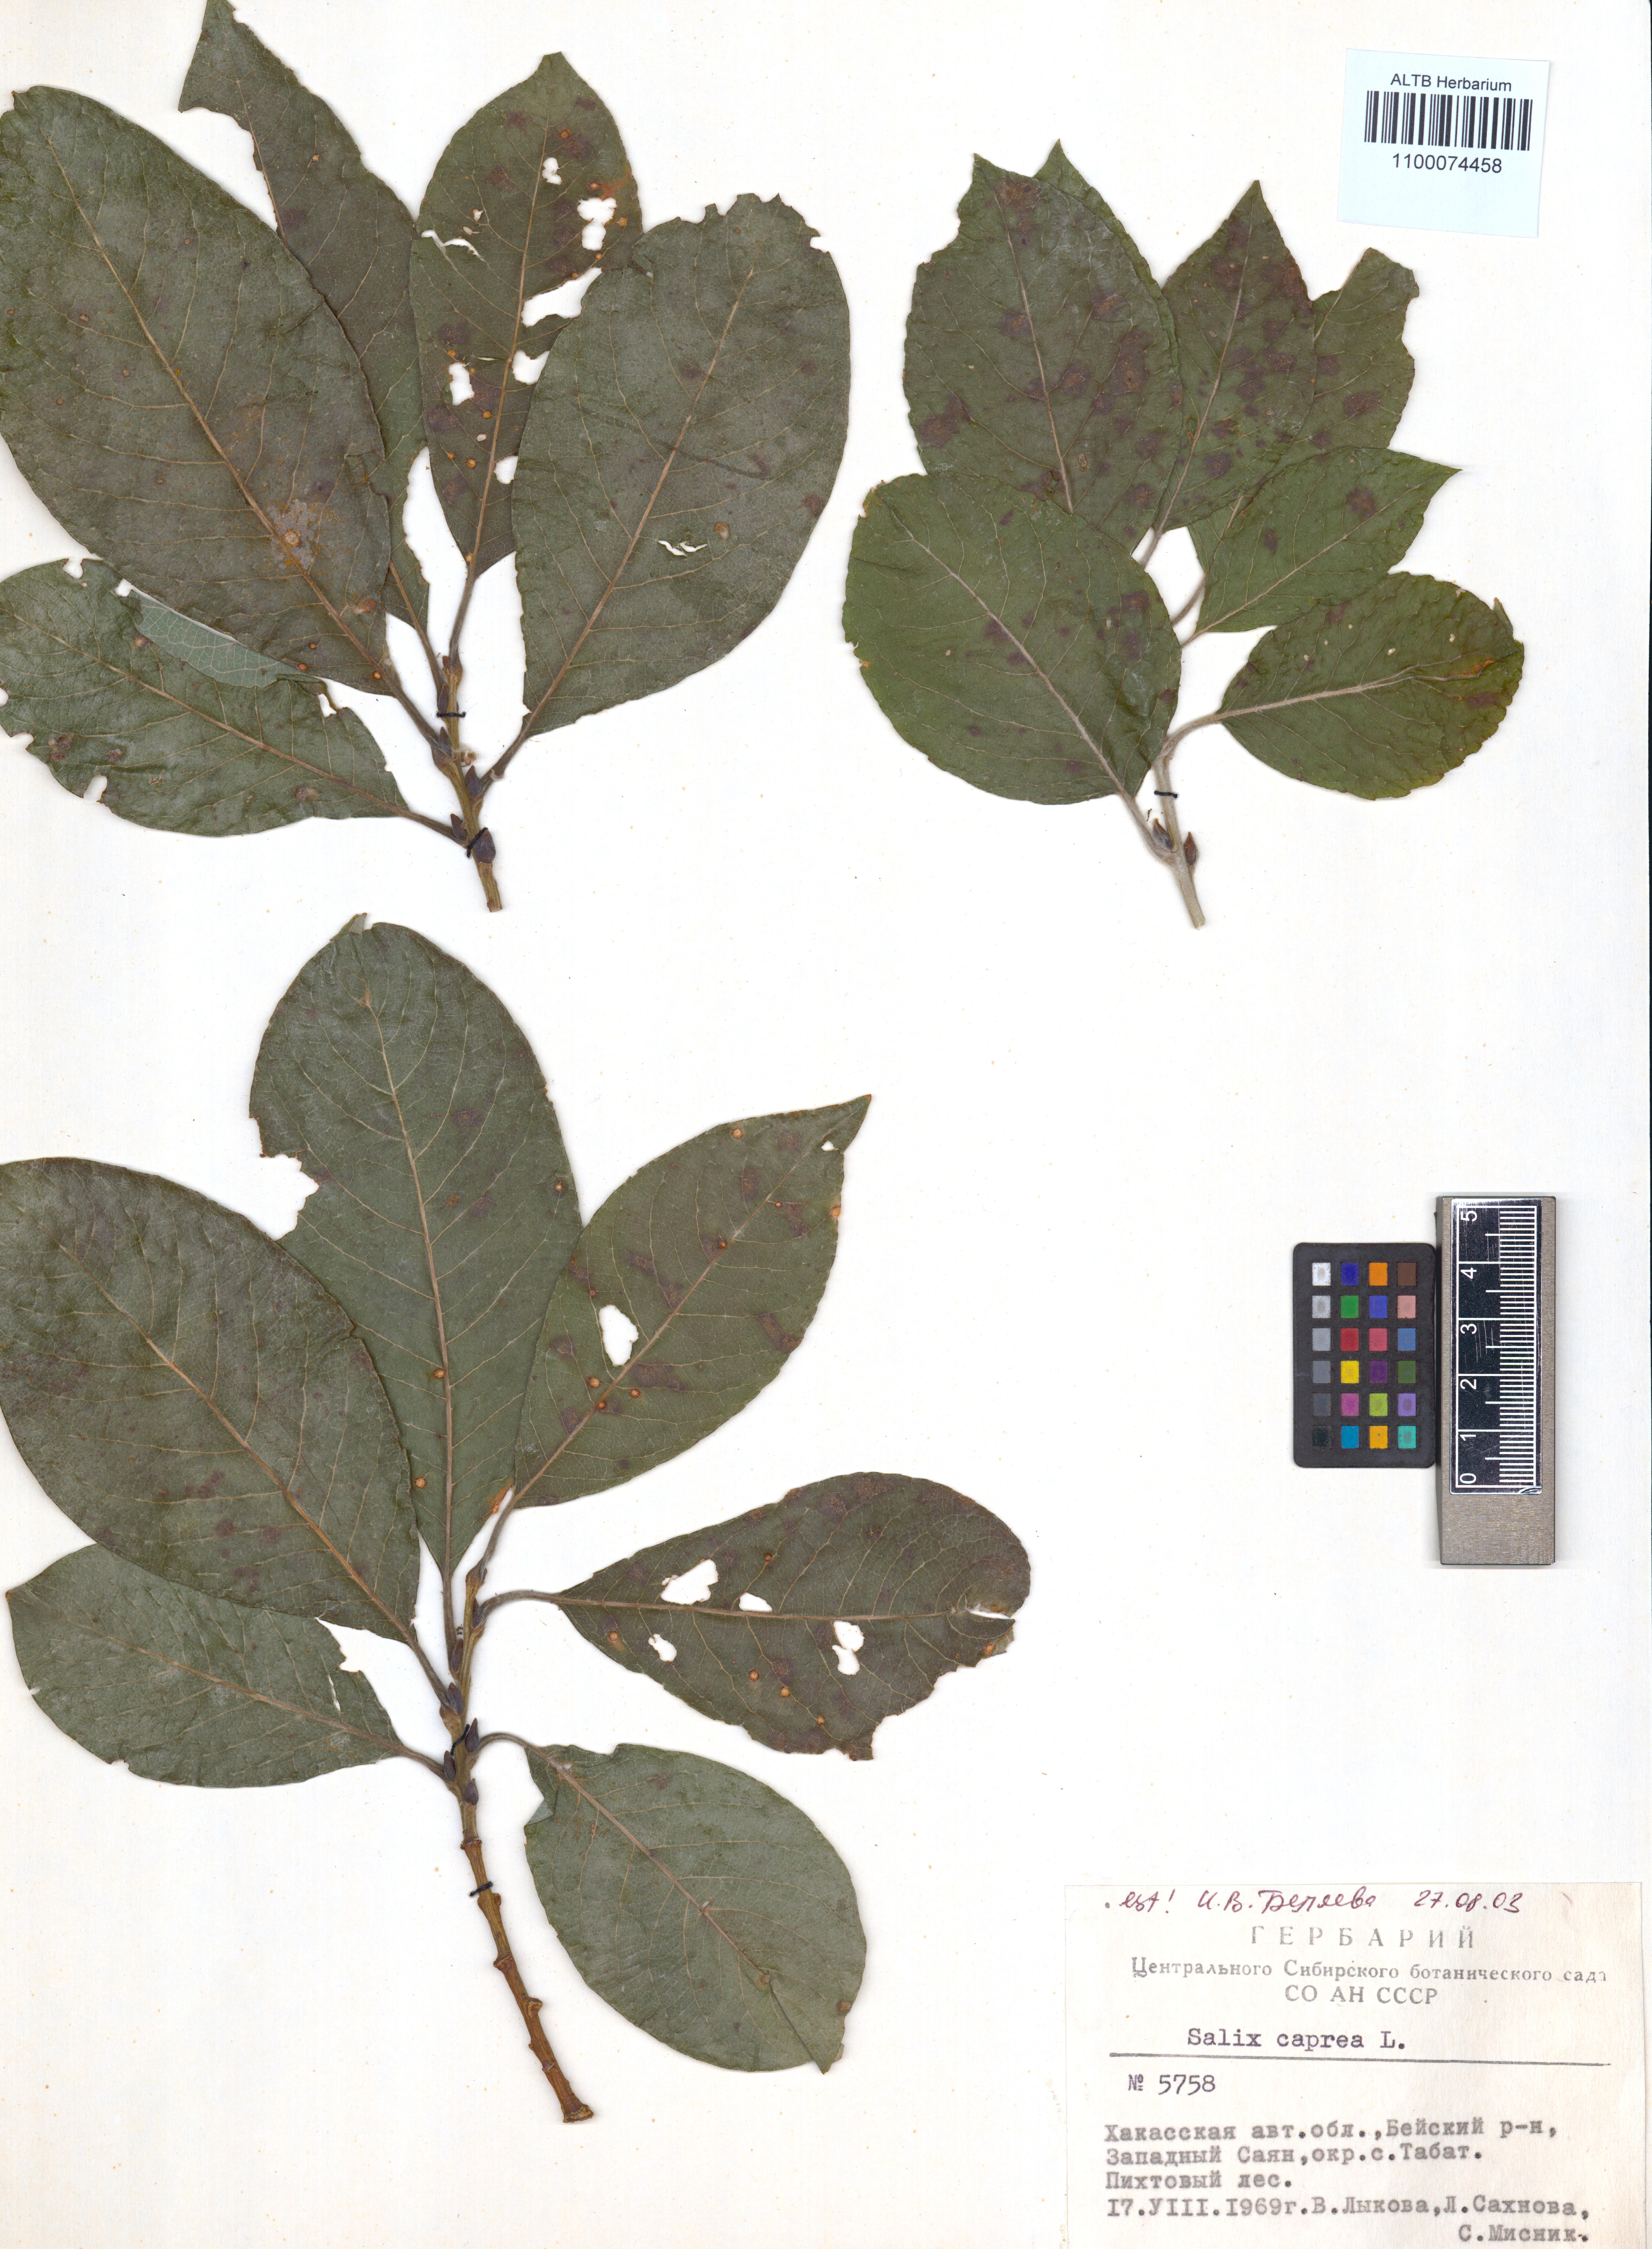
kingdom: Plantae
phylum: Tracheophyta
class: Magnoliopsida
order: Malpighiales
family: Salicaceae
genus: Salix
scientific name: Salix caprea
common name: Goat willow
